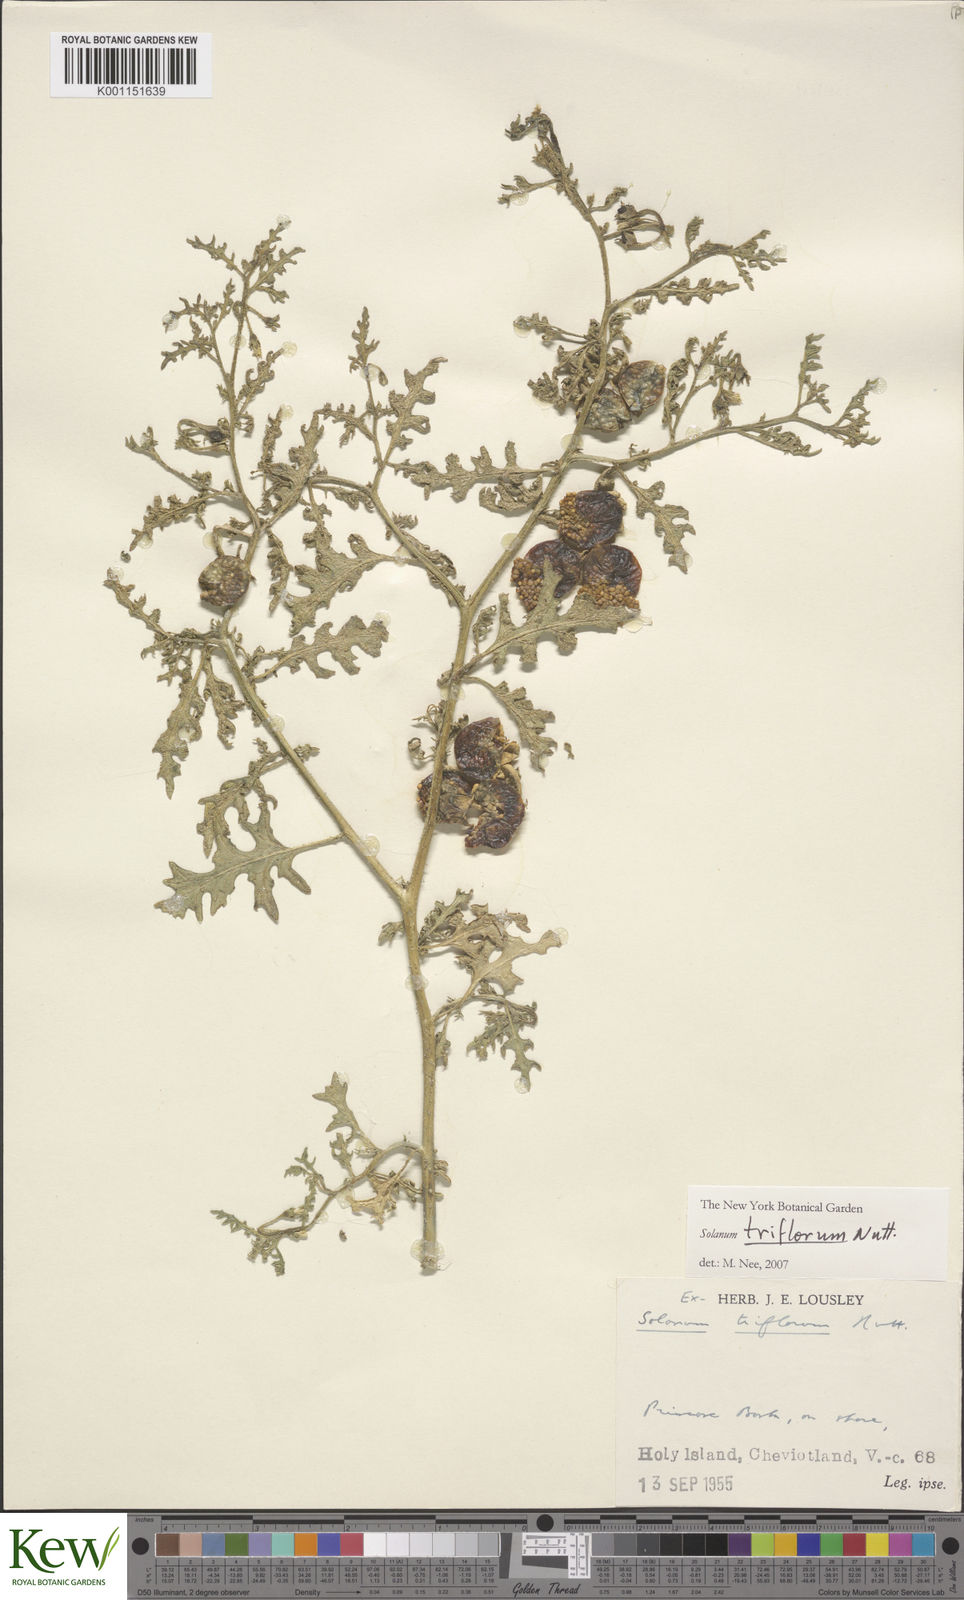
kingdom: Plantae
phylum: Tracheophyta
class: Magnoliopsida
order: Solanales
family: Solanaceae
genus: Solanum
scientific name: Solanum triflorum
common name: Small nightshade
